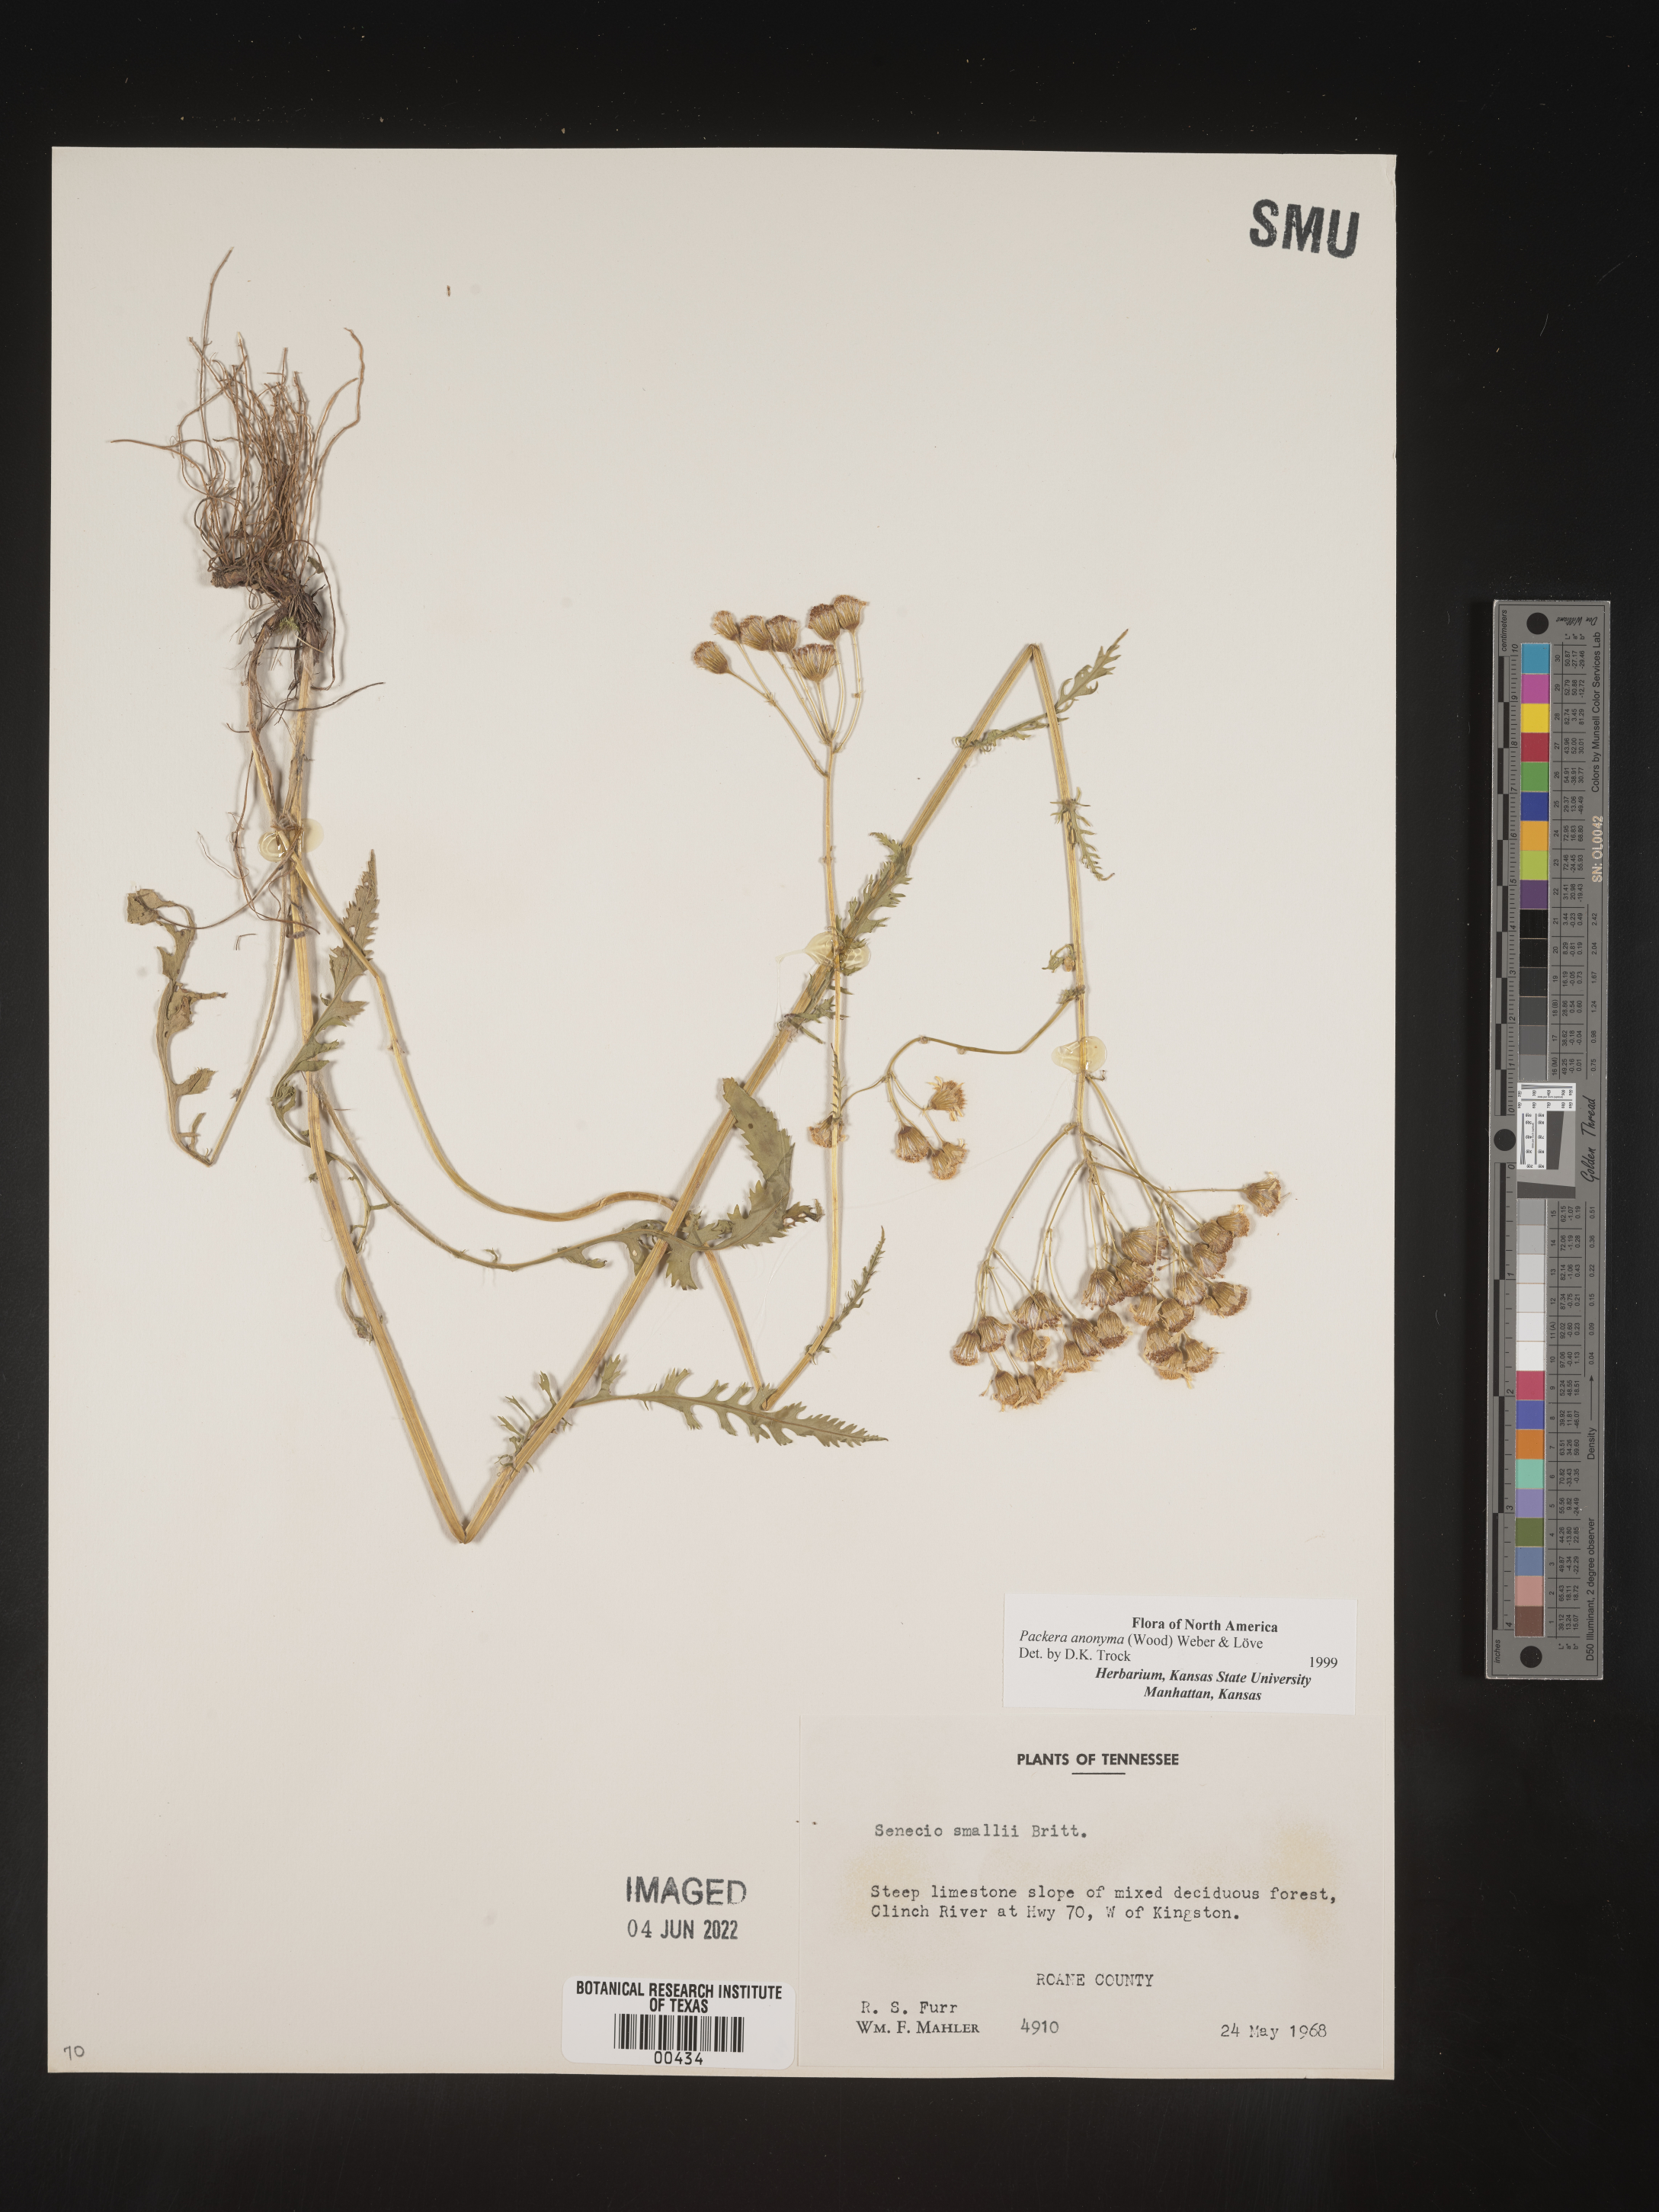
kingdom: Plantae
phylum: Tracheophyta
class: Magnoliopsida
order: Asterales
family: Asteraceae
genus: Packera
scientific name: Packera anonyma
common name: Small ragwort
